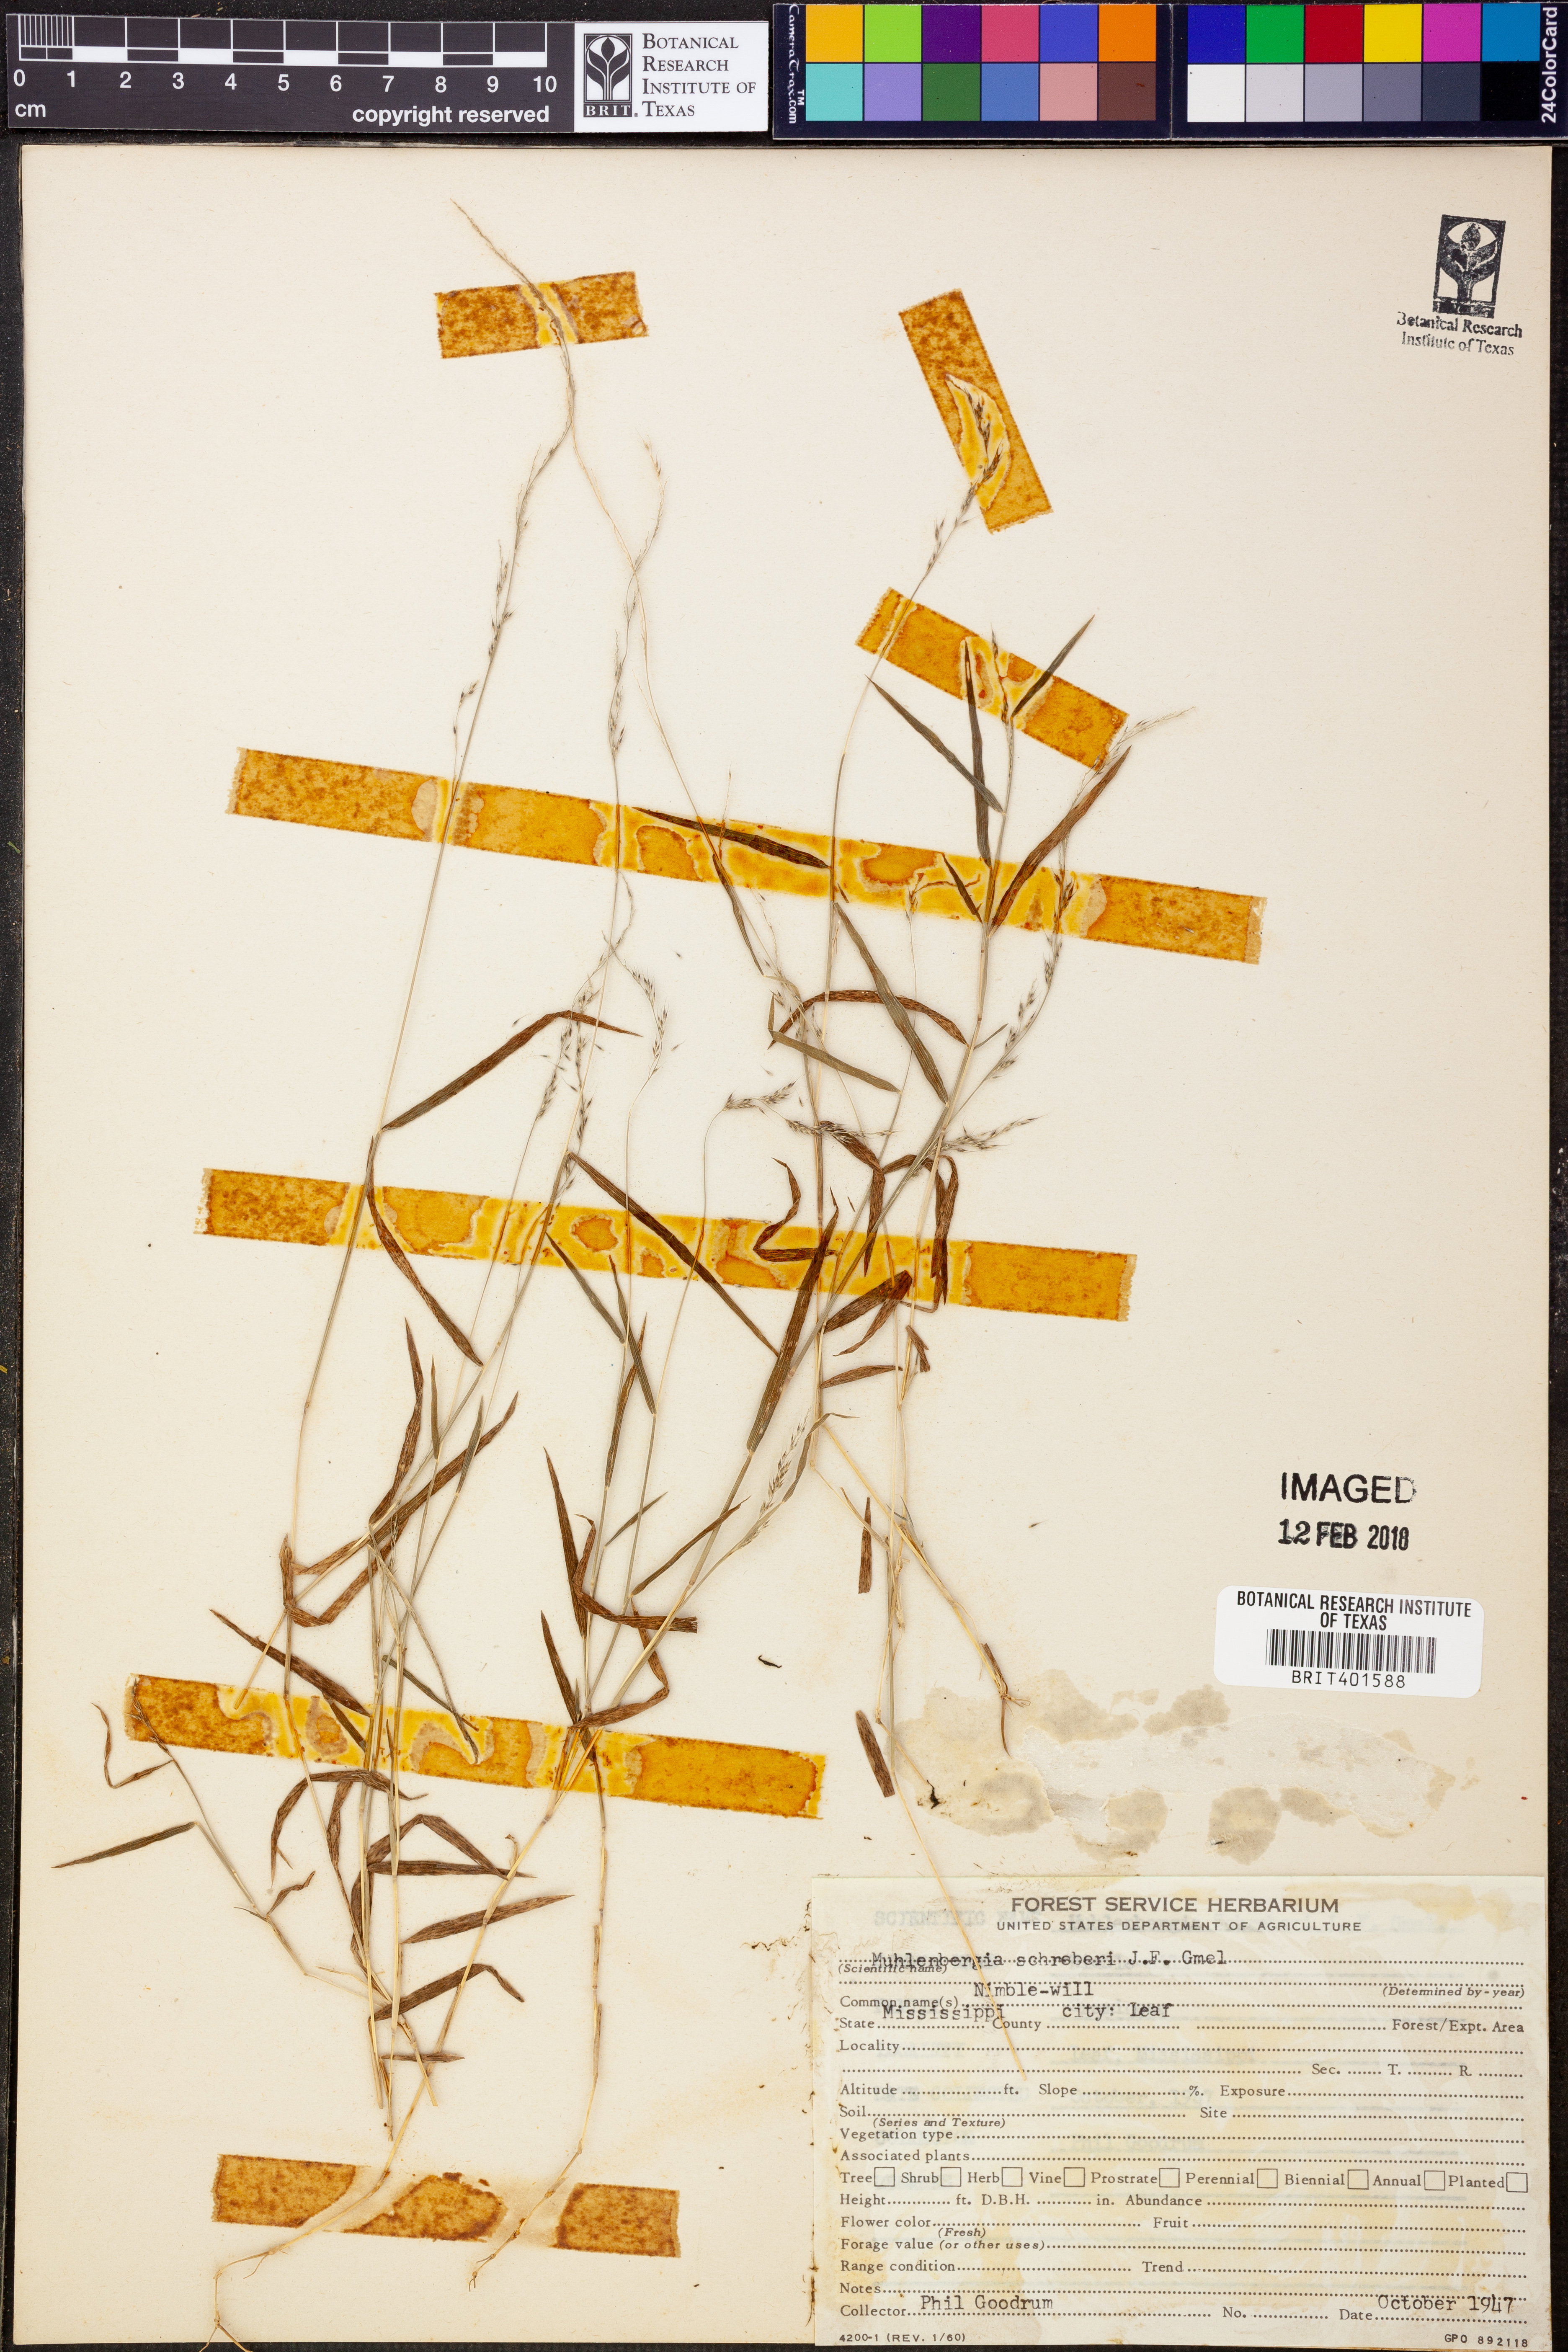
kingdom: Plantae
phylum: Tracheophyta
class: Liliopsida
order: Poales
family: Poaceae
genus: Muhlenbergia
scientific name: Muhlenbergia schreberi
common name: Nimblewill
